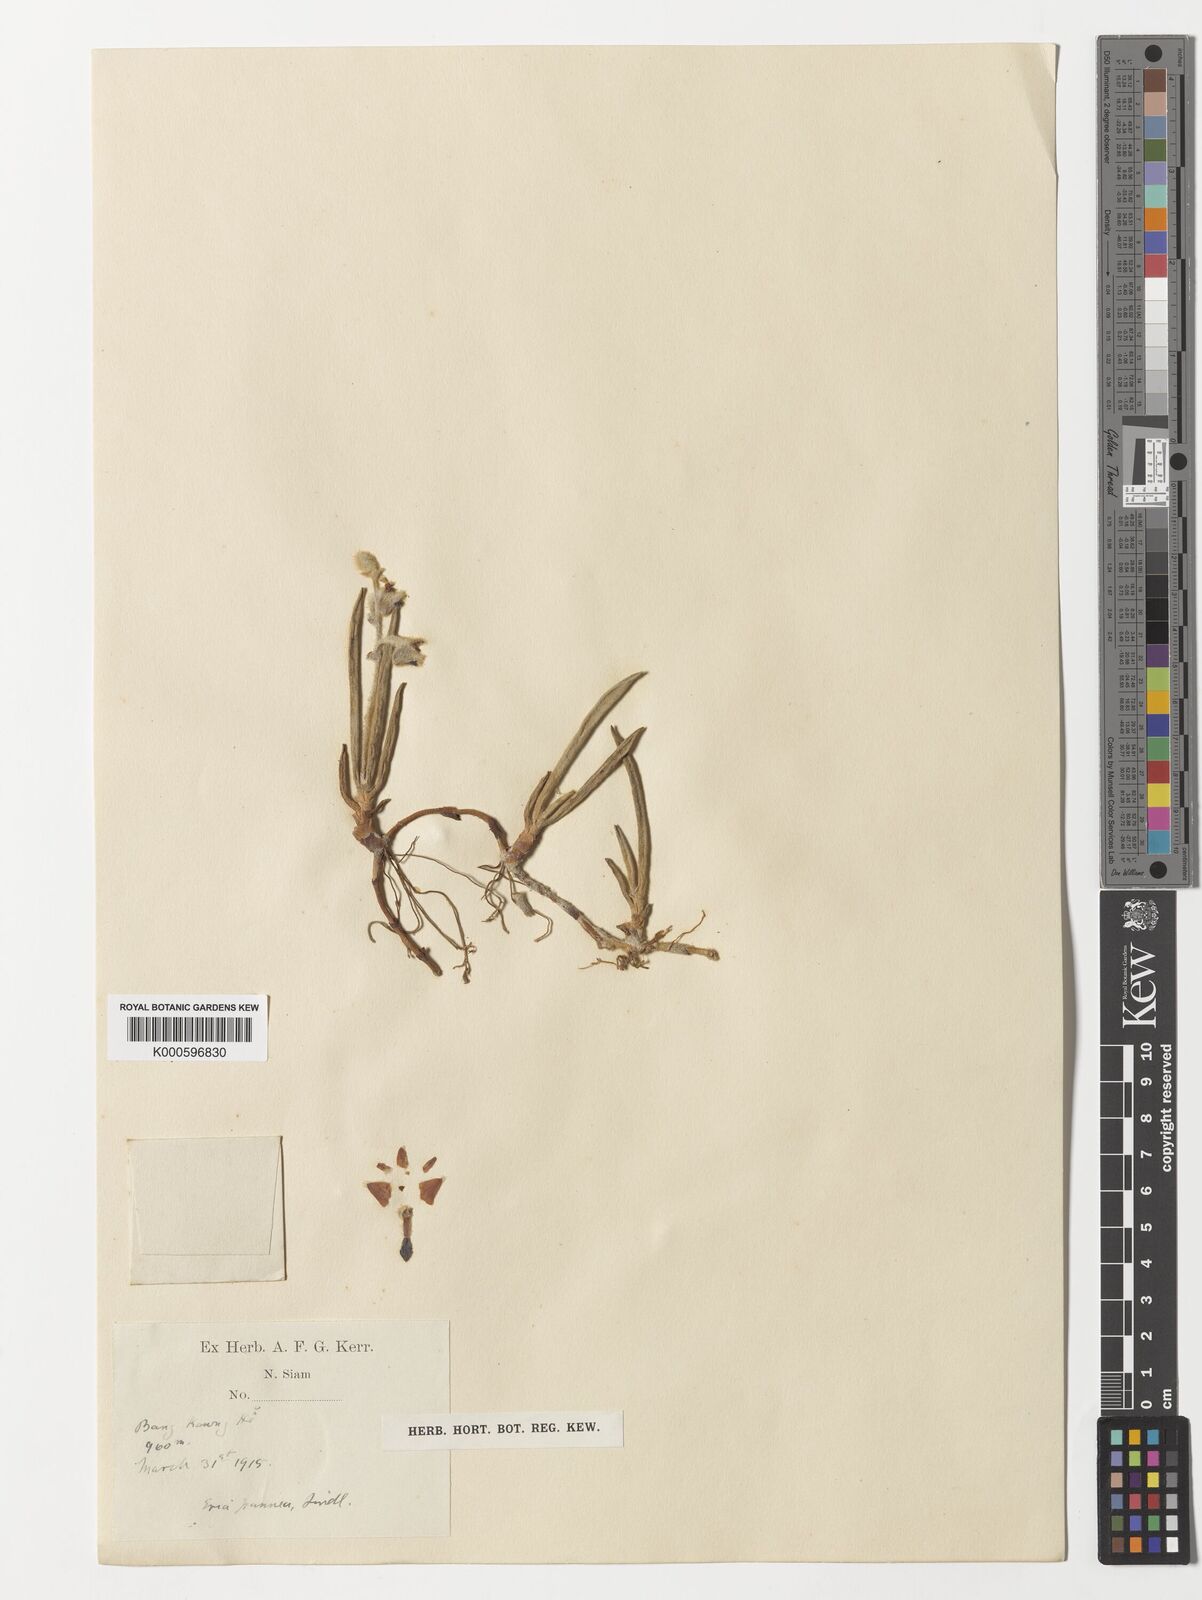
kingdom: Plantae
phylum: Tracheophyta
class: Liliopsida
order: Asparagales
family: Orchidaceae
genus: Strongyleria
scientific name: Strongyleria pannea
